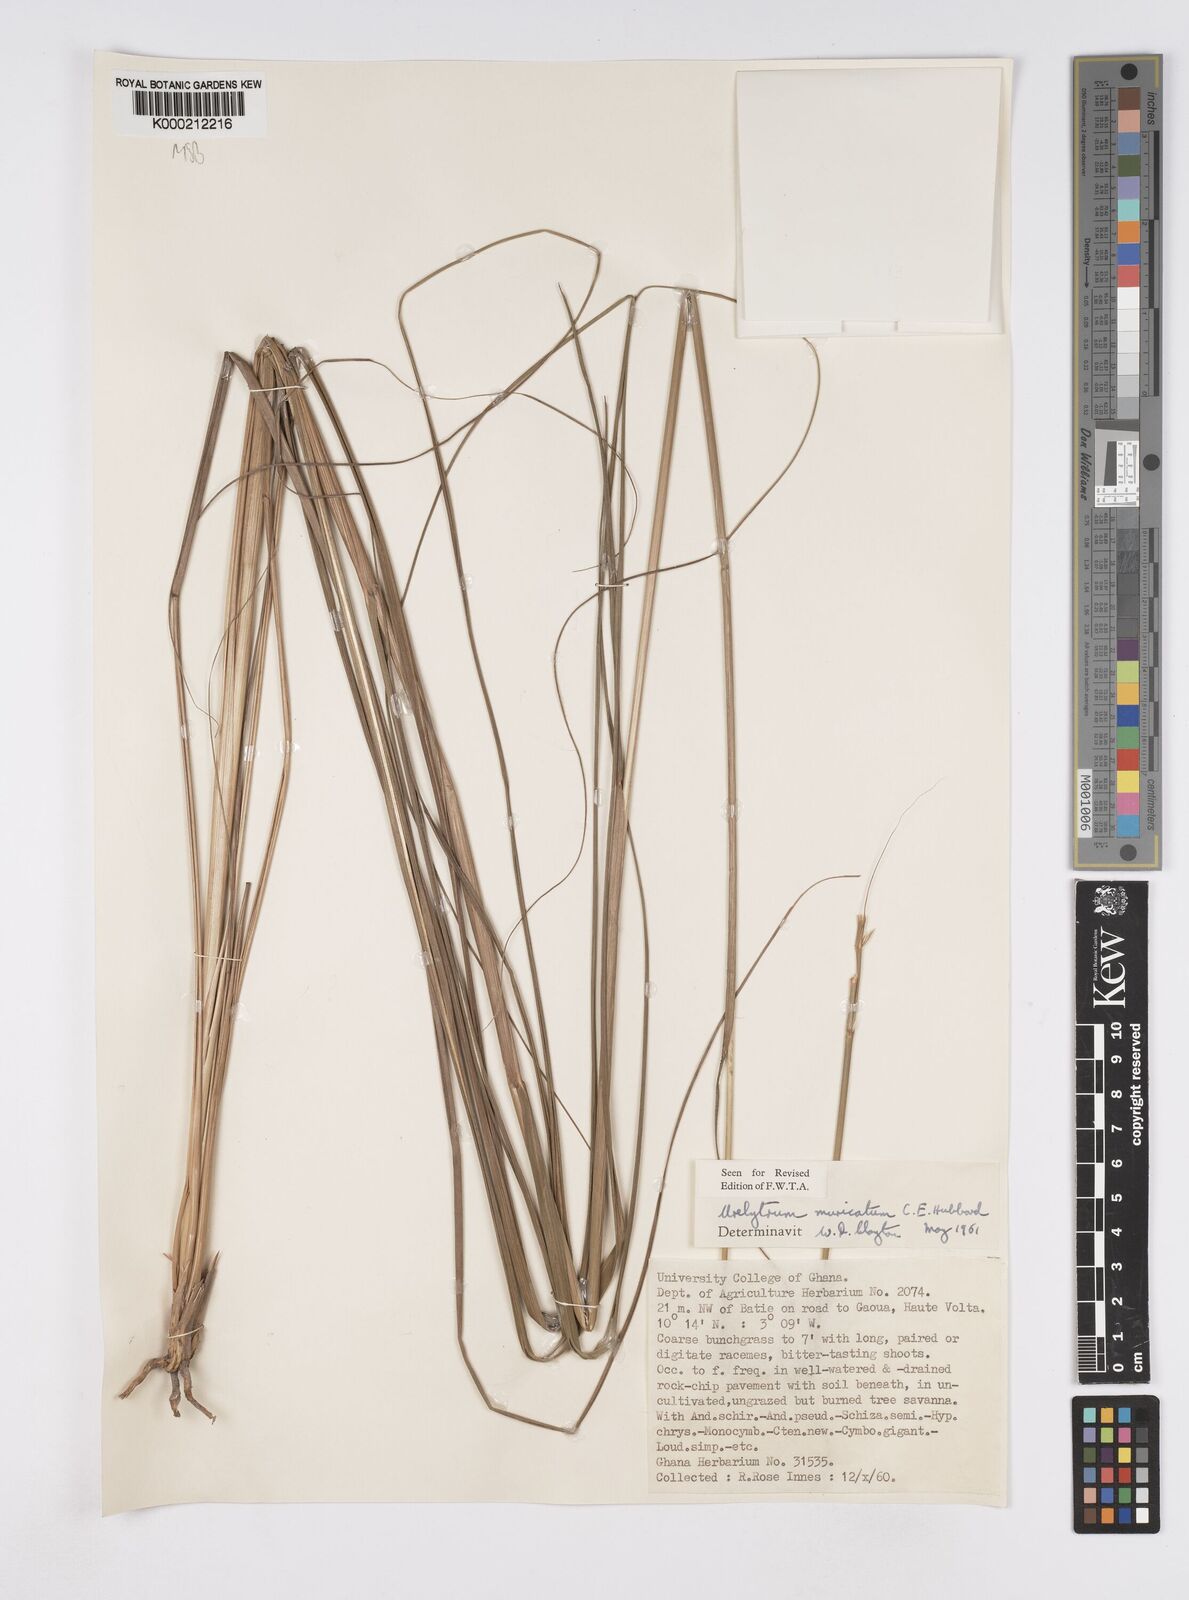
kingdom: Plantae
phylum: Tracheophyta
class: Liliopsida
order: Poales
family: Poaceae
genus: Urelytrum
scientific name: Urelytrum muricatum
